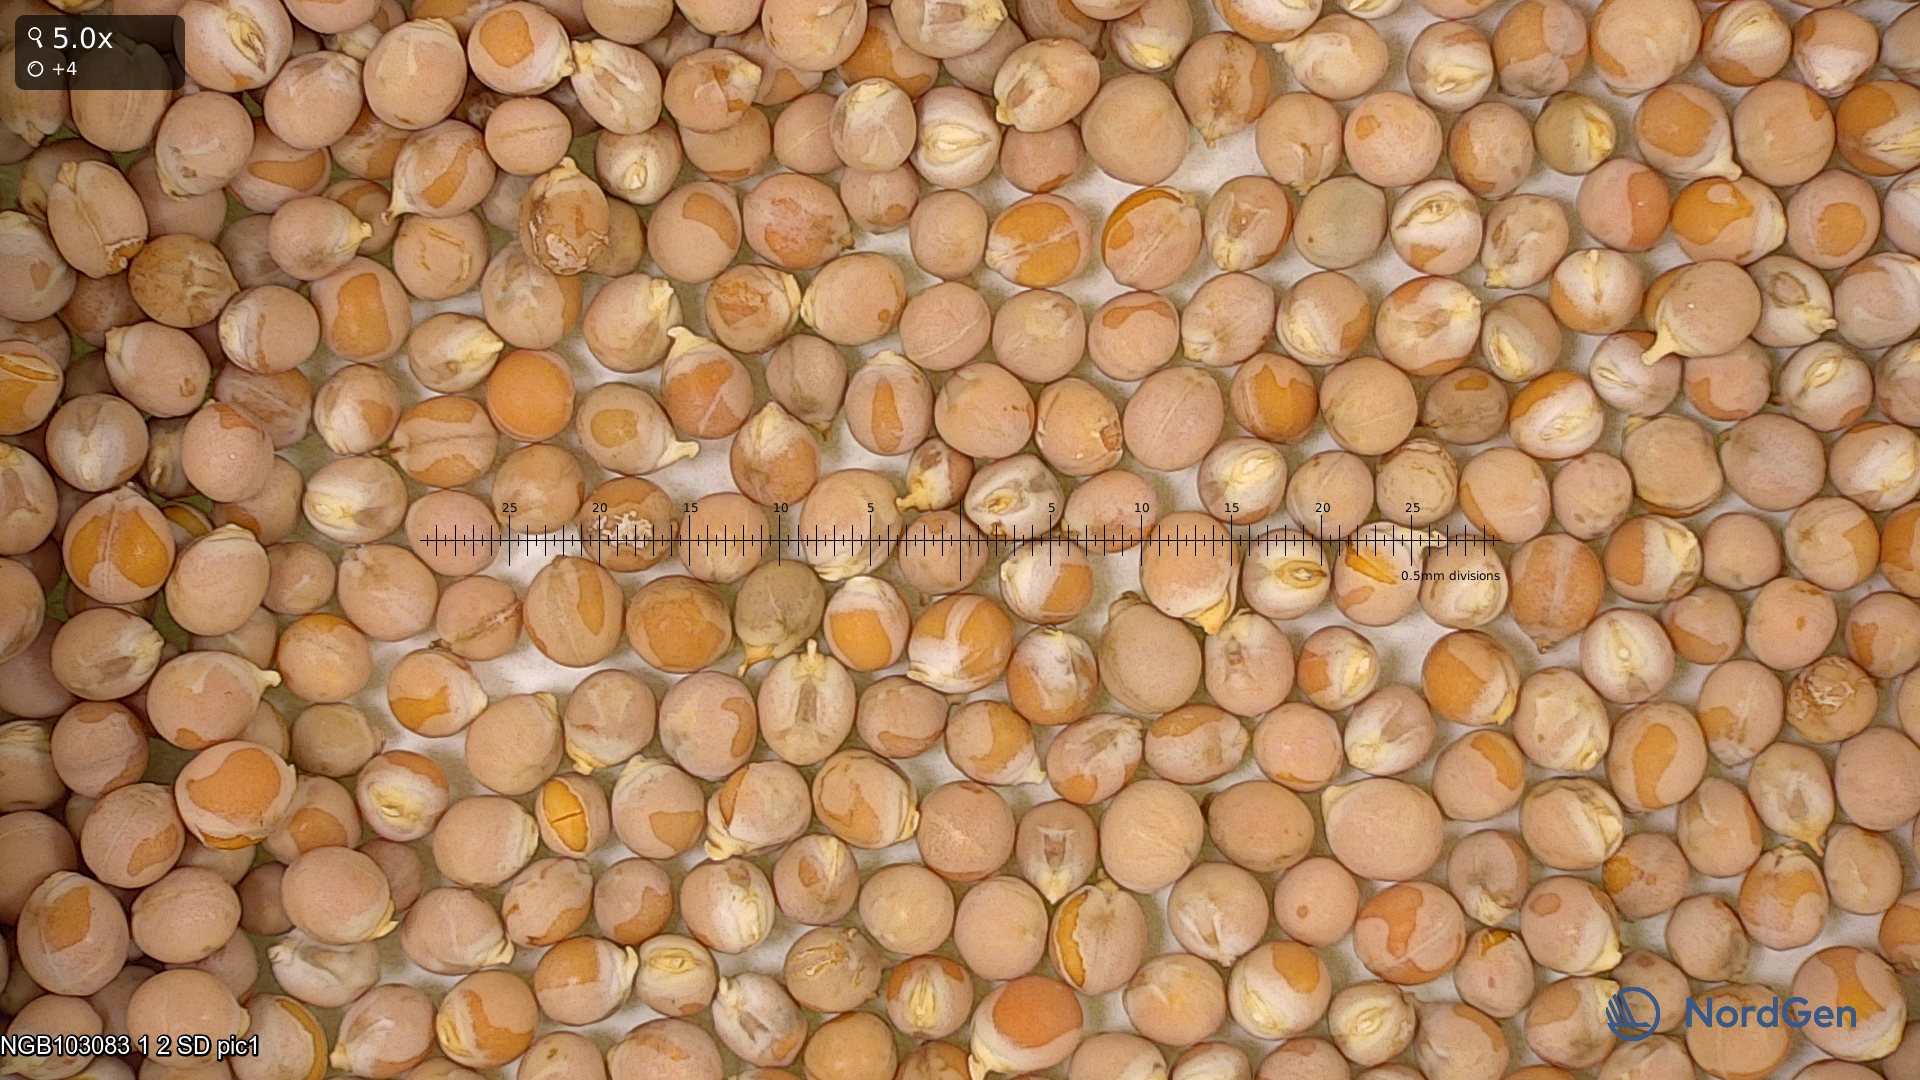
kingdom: Plantae
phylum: Tracheophyta
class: Magnoliopsida
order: Fabales
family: Fabaceae
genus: Lathyrus
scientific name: Lathyrus oleraceus
